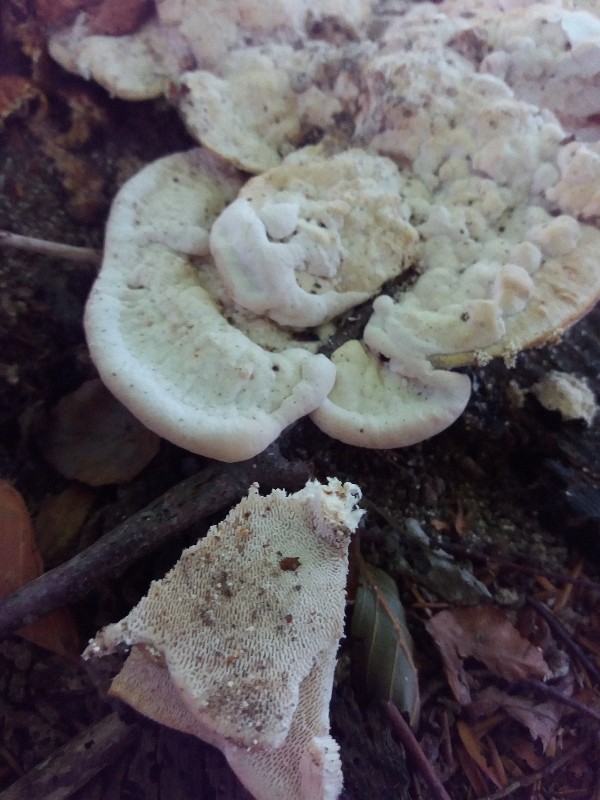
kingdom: Fungi
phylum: Basidiomycota
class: Agaricomycetes
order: Polyporales
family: Polyporaceae
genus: Trametes
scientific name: Trametes gibbosa
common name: puklet læderporesvamp
